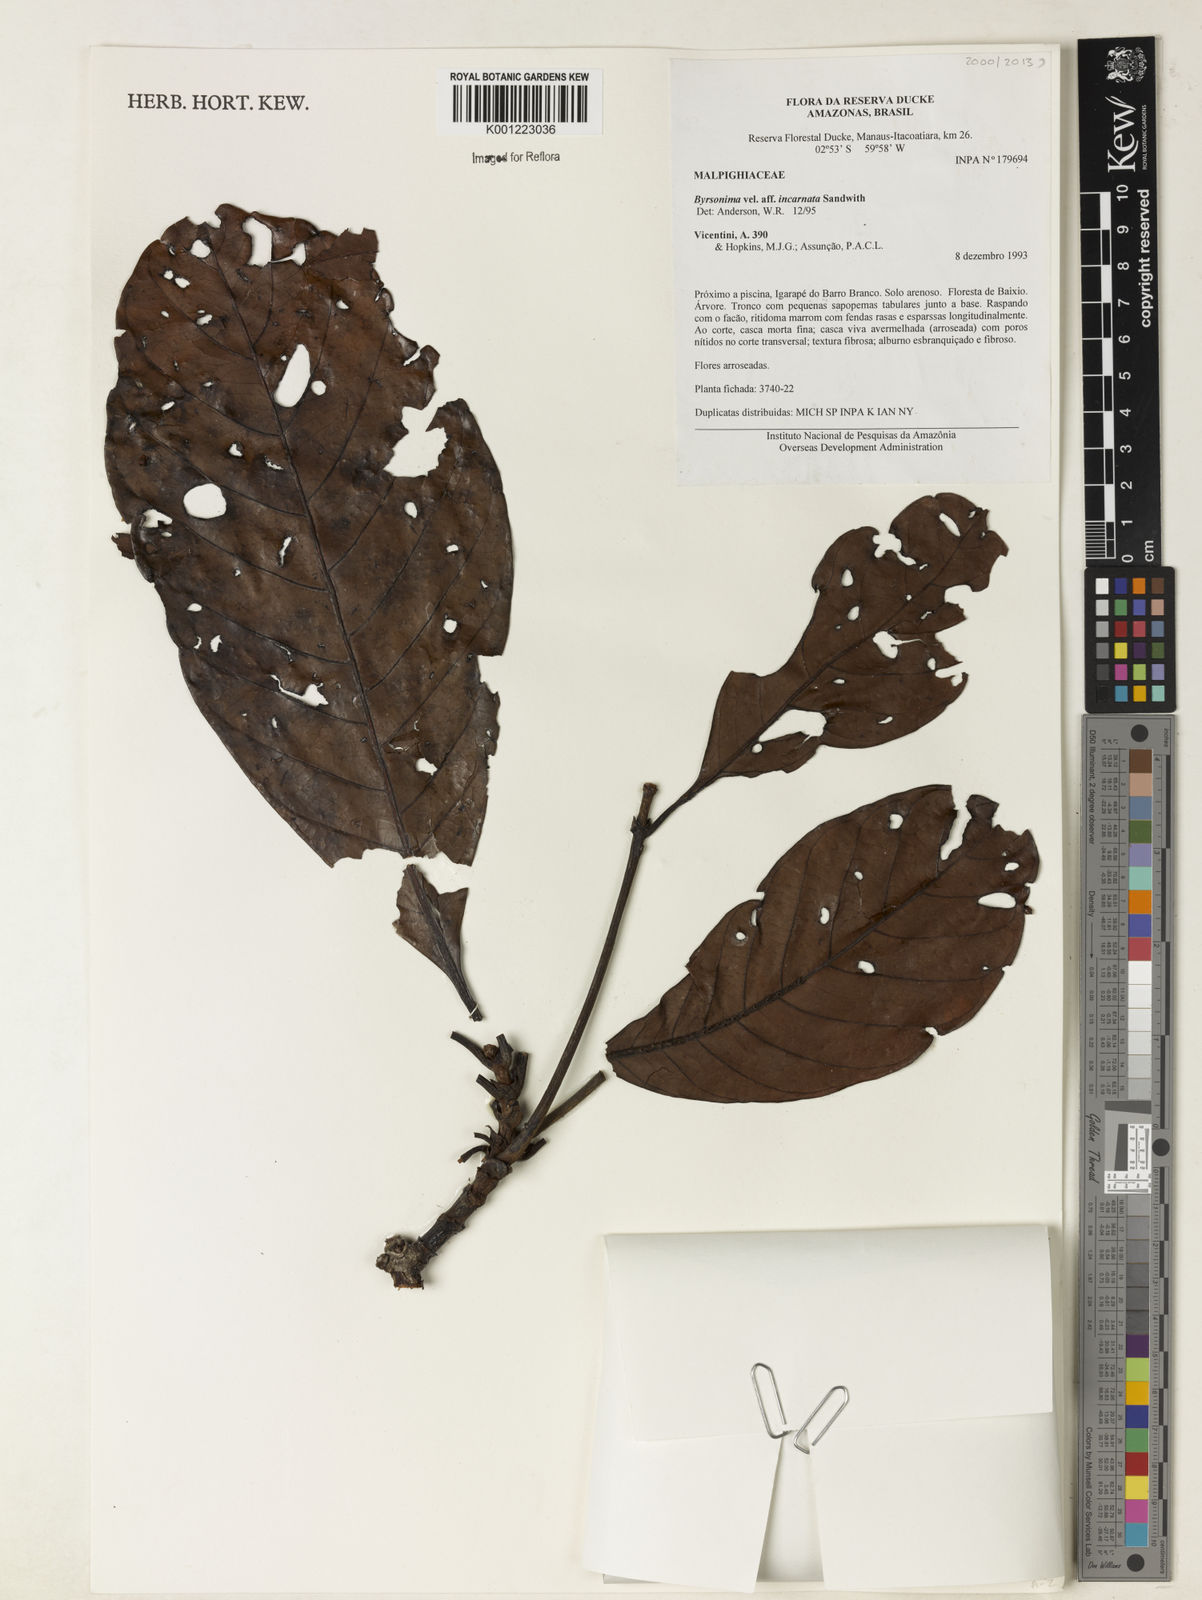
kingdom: Plantae
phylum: Tracheophyta
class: Magnoliopsida
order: Malpighiales
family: Malpighiaceae
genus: Byrsonima
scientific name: Byrsonima incarnata
